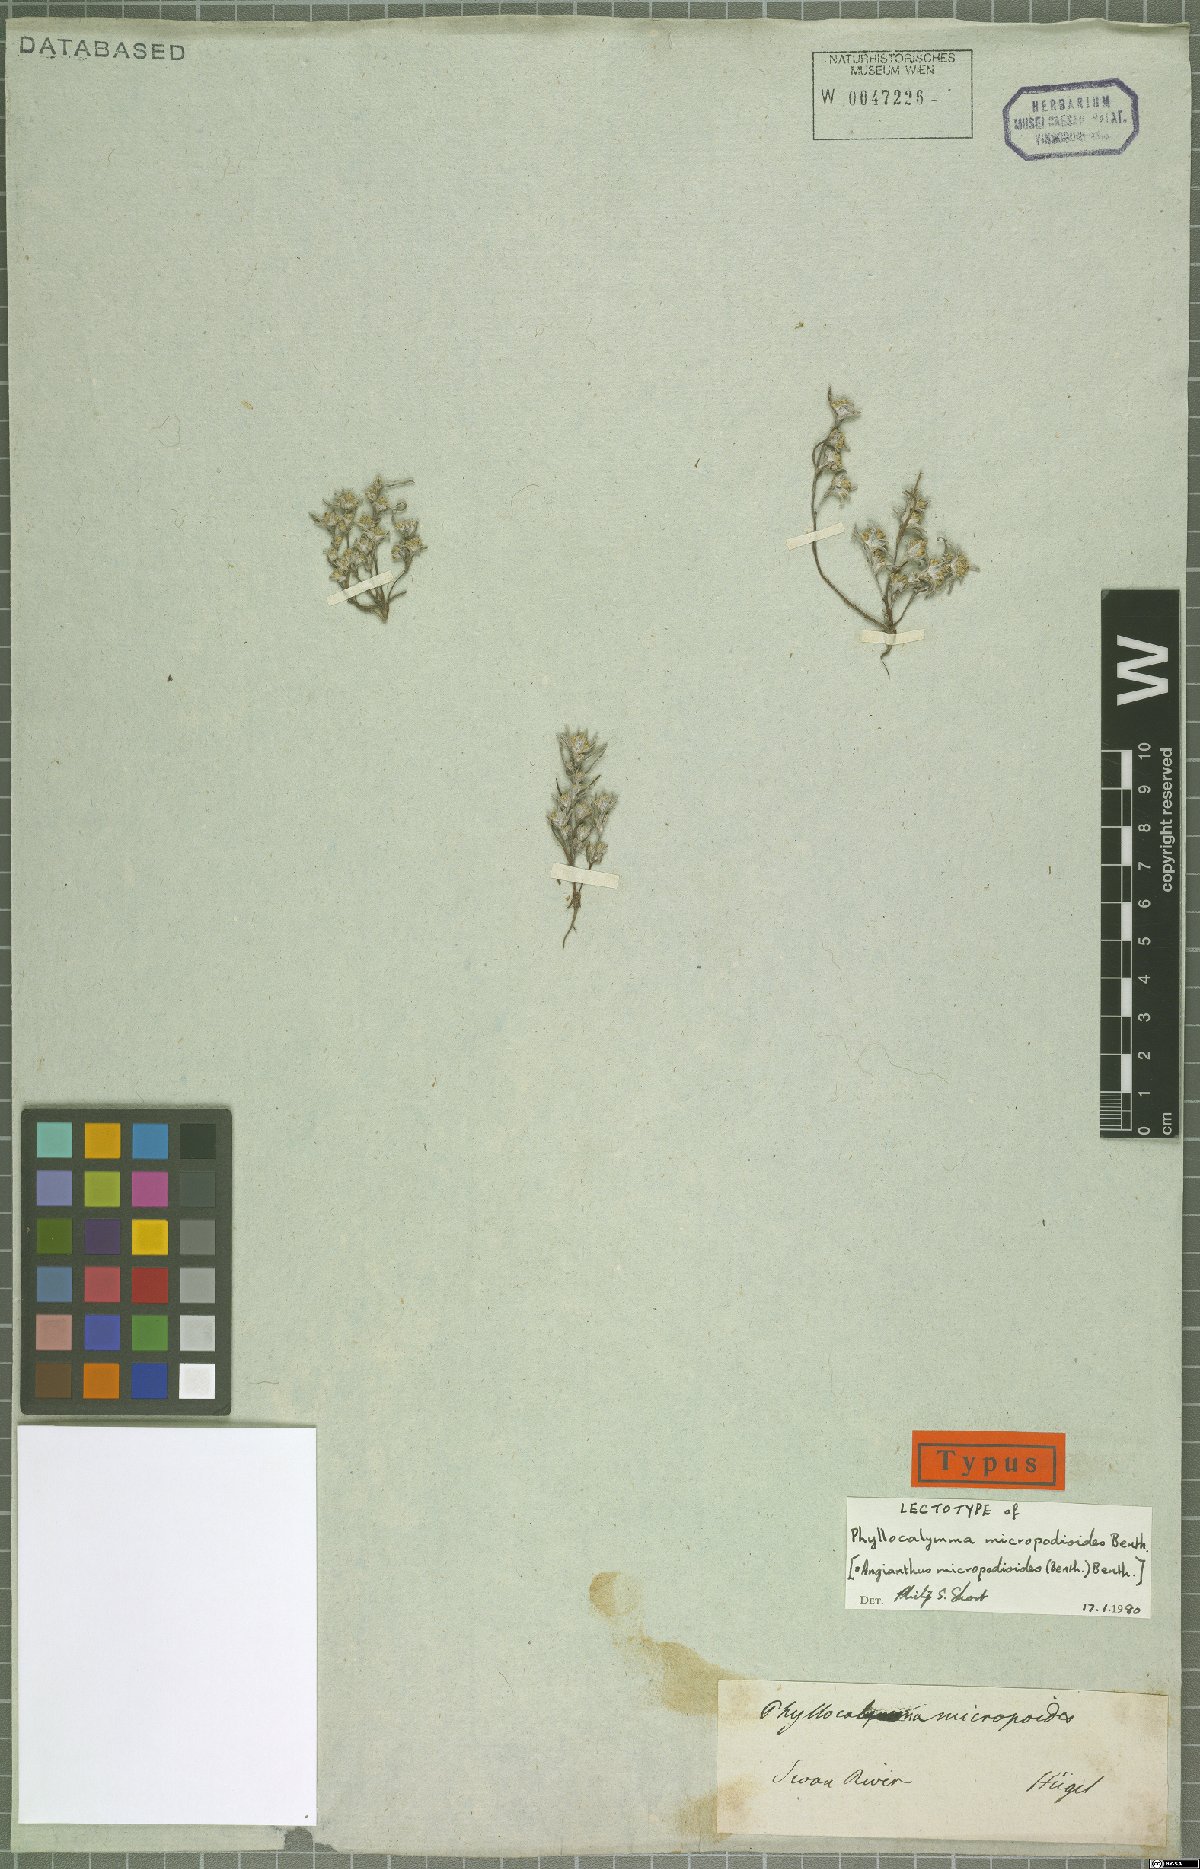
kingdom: Plantae
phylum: Tracheophyta
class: Magnoliopsida
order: Asterales
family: Asteraceae
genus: Angianthus
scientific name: Angianthus micropodioides
